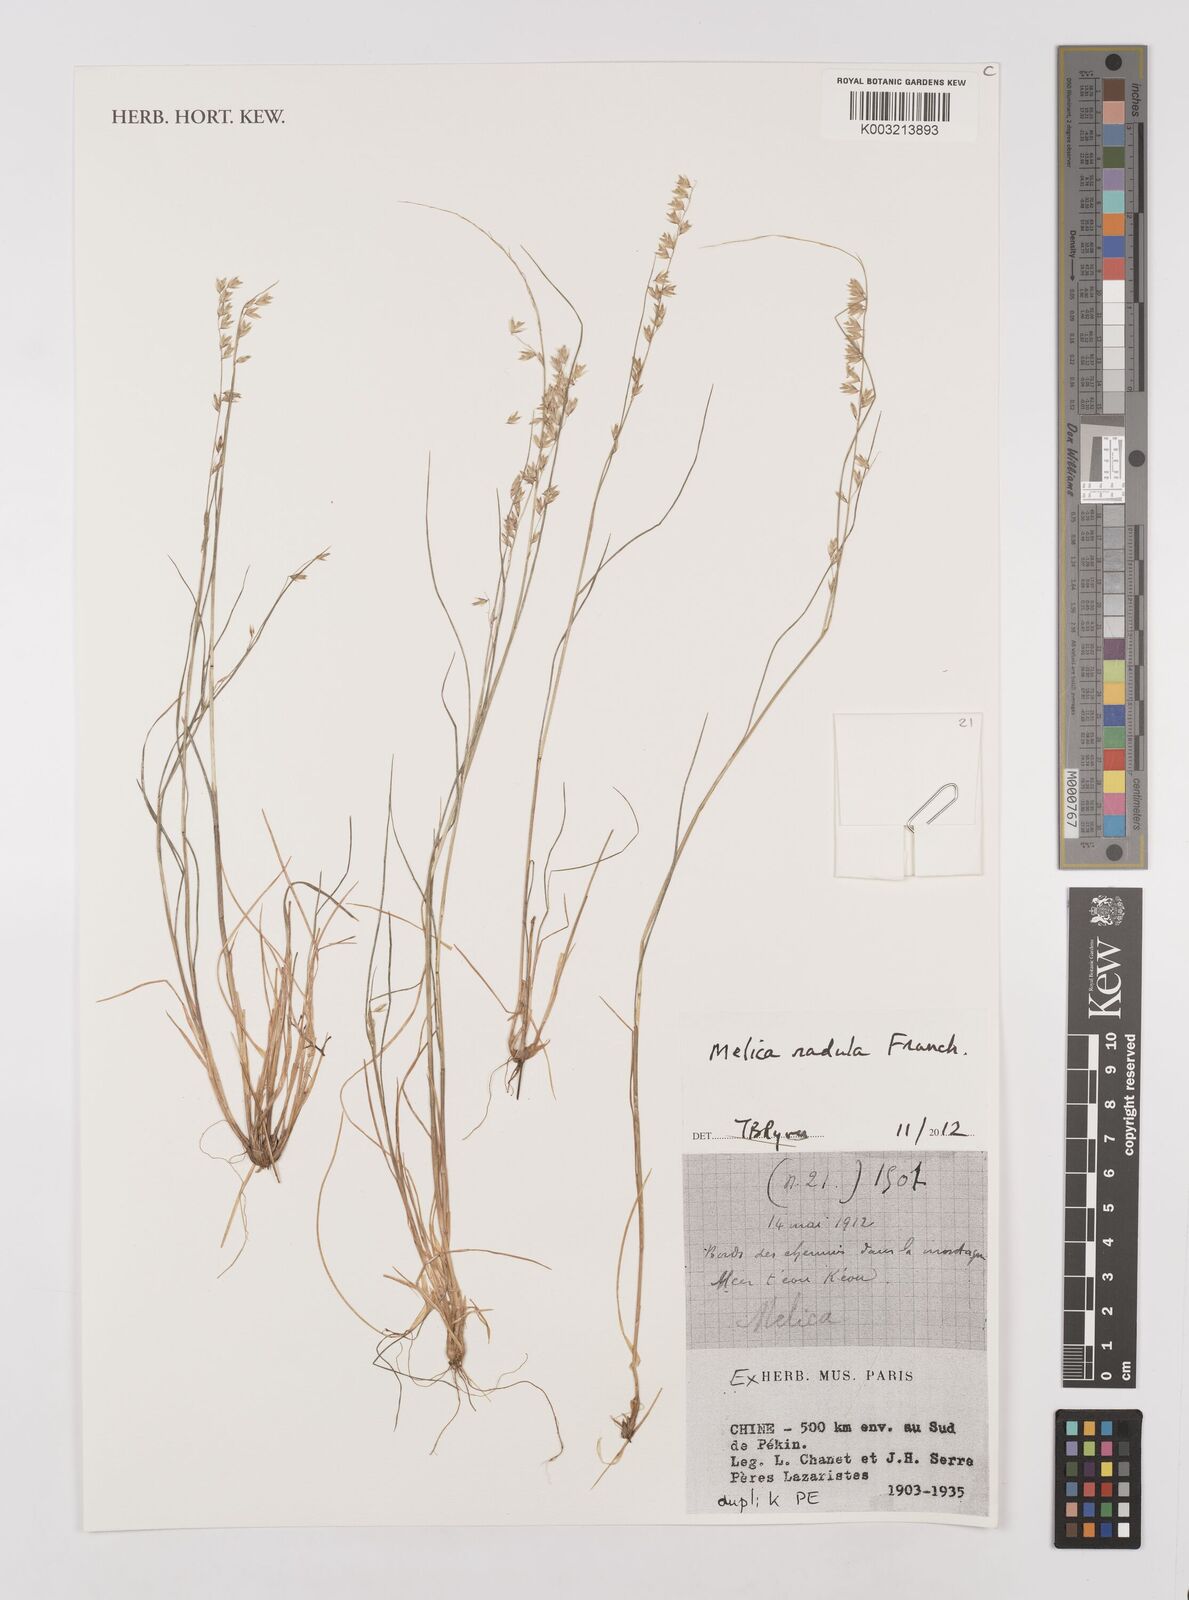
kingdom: Plantae
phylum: Tracheophyta
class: Liliopsida
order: Poales
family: Poaceae
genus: Melica
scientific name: Melica radula
